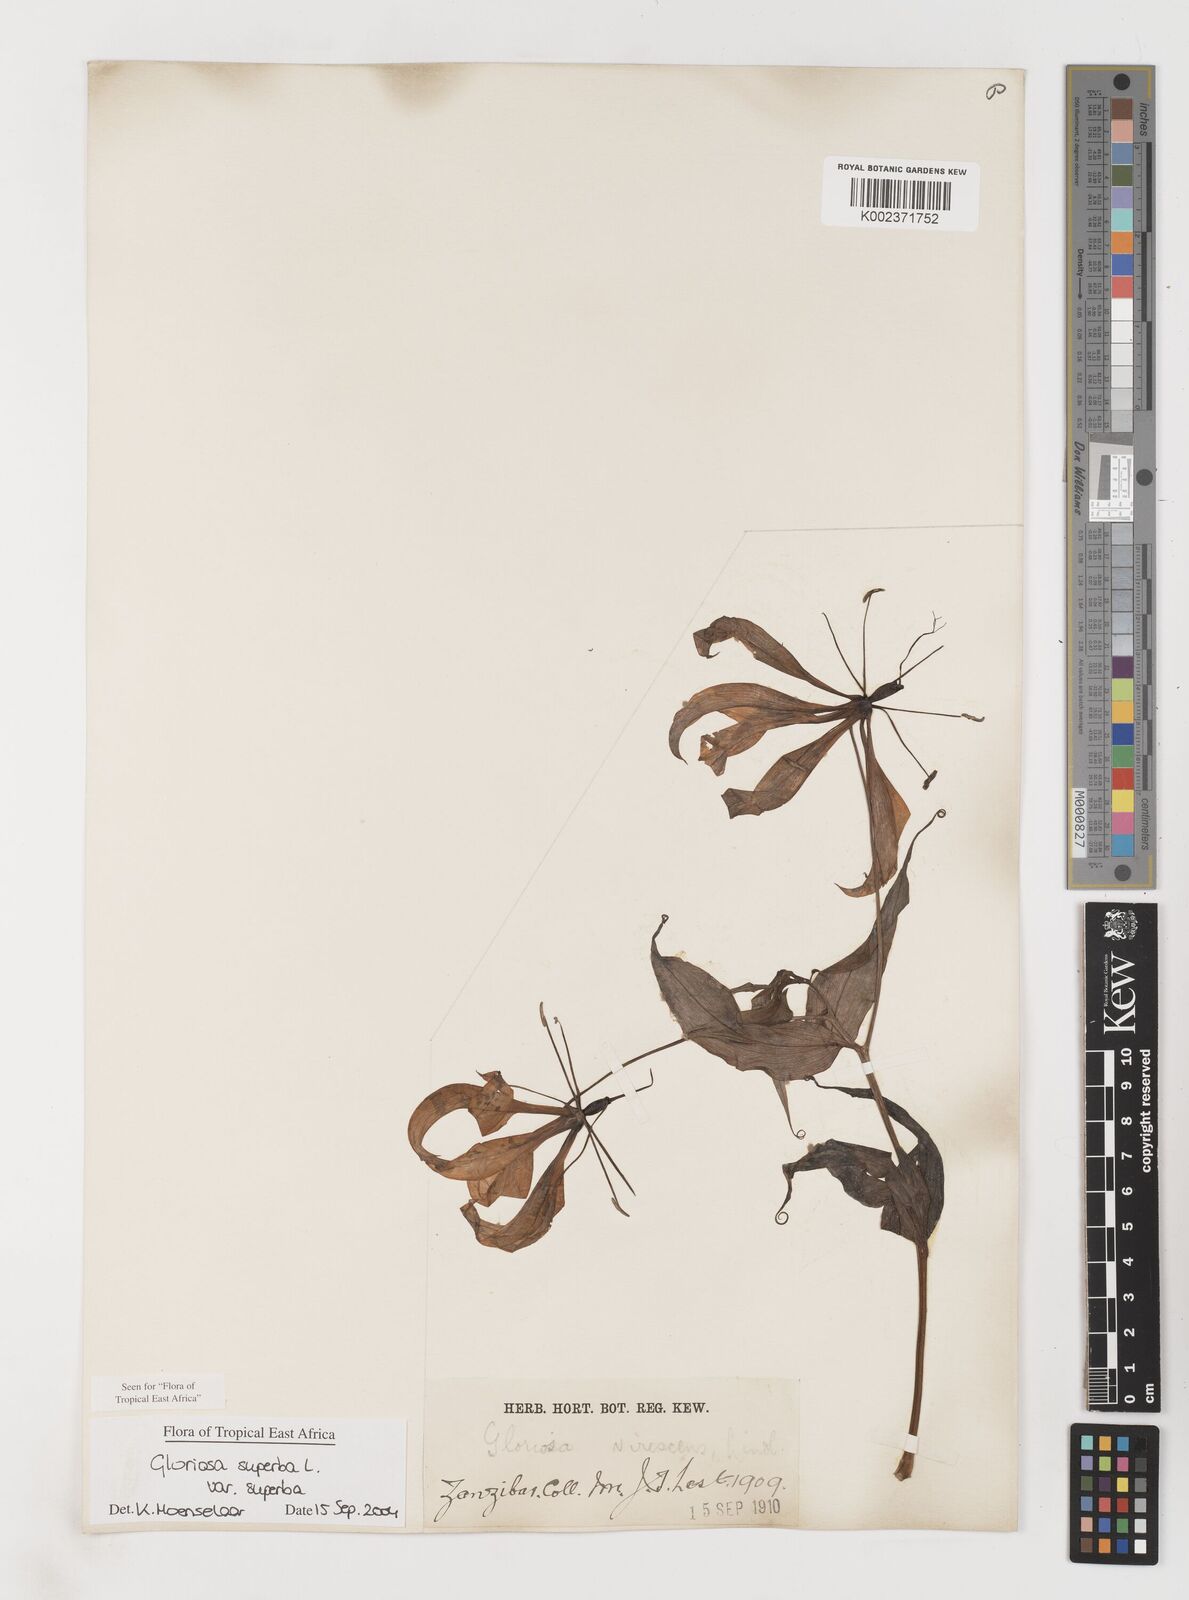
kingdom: Plantae
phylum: Tracheophyta
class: Liliopsida
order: Liliales
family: Colchicaceae
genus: Gloriosa
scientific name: Gloriosa simplex
